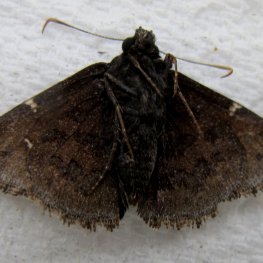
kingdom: Animalia
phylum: Arthropoda
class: Insecta
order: Lepidoptera
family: Hesperiidae
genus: Autochton
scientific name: Autochton
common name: Northern Cloudywing
